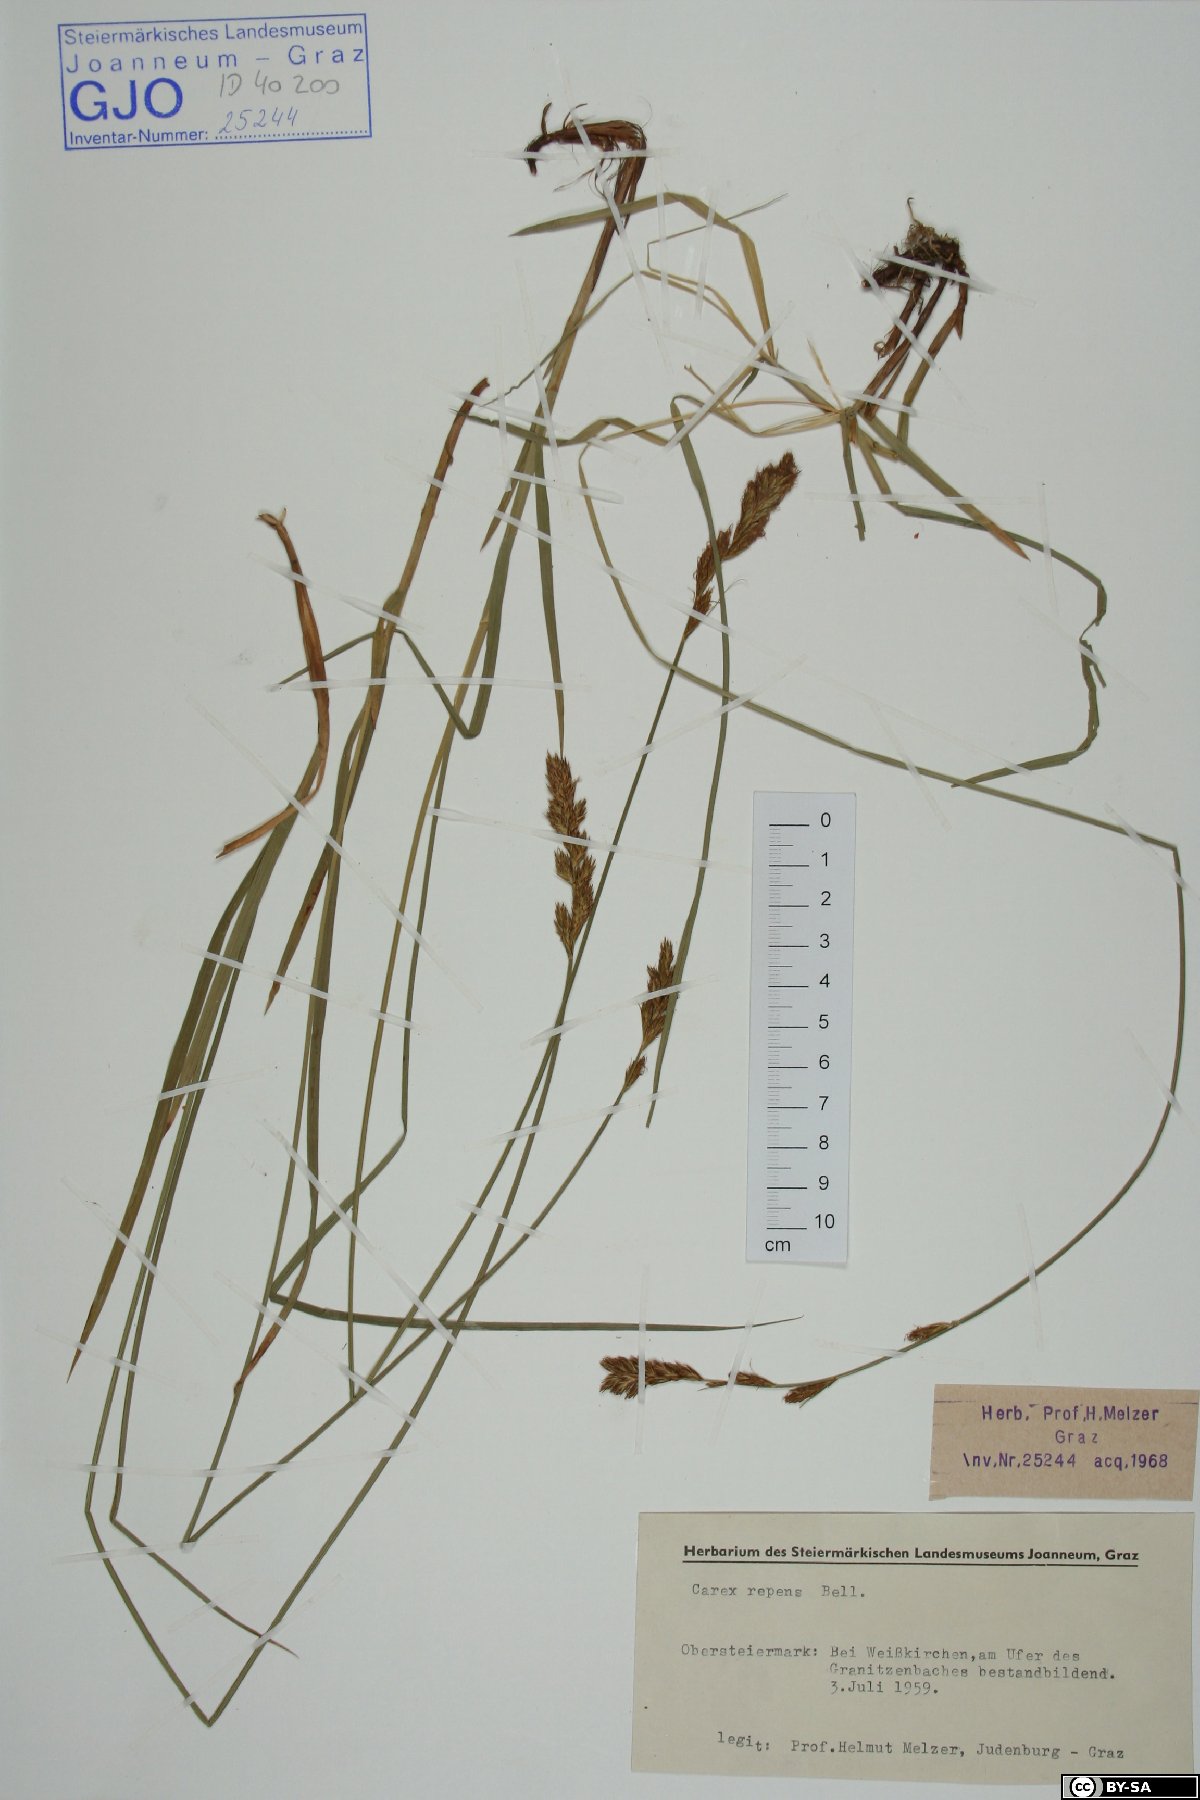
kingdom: Plantae
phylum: Tracheophyta
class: Liliopsida
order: Poales
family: Cyperaceae
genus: Carex
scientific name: Carex repens
